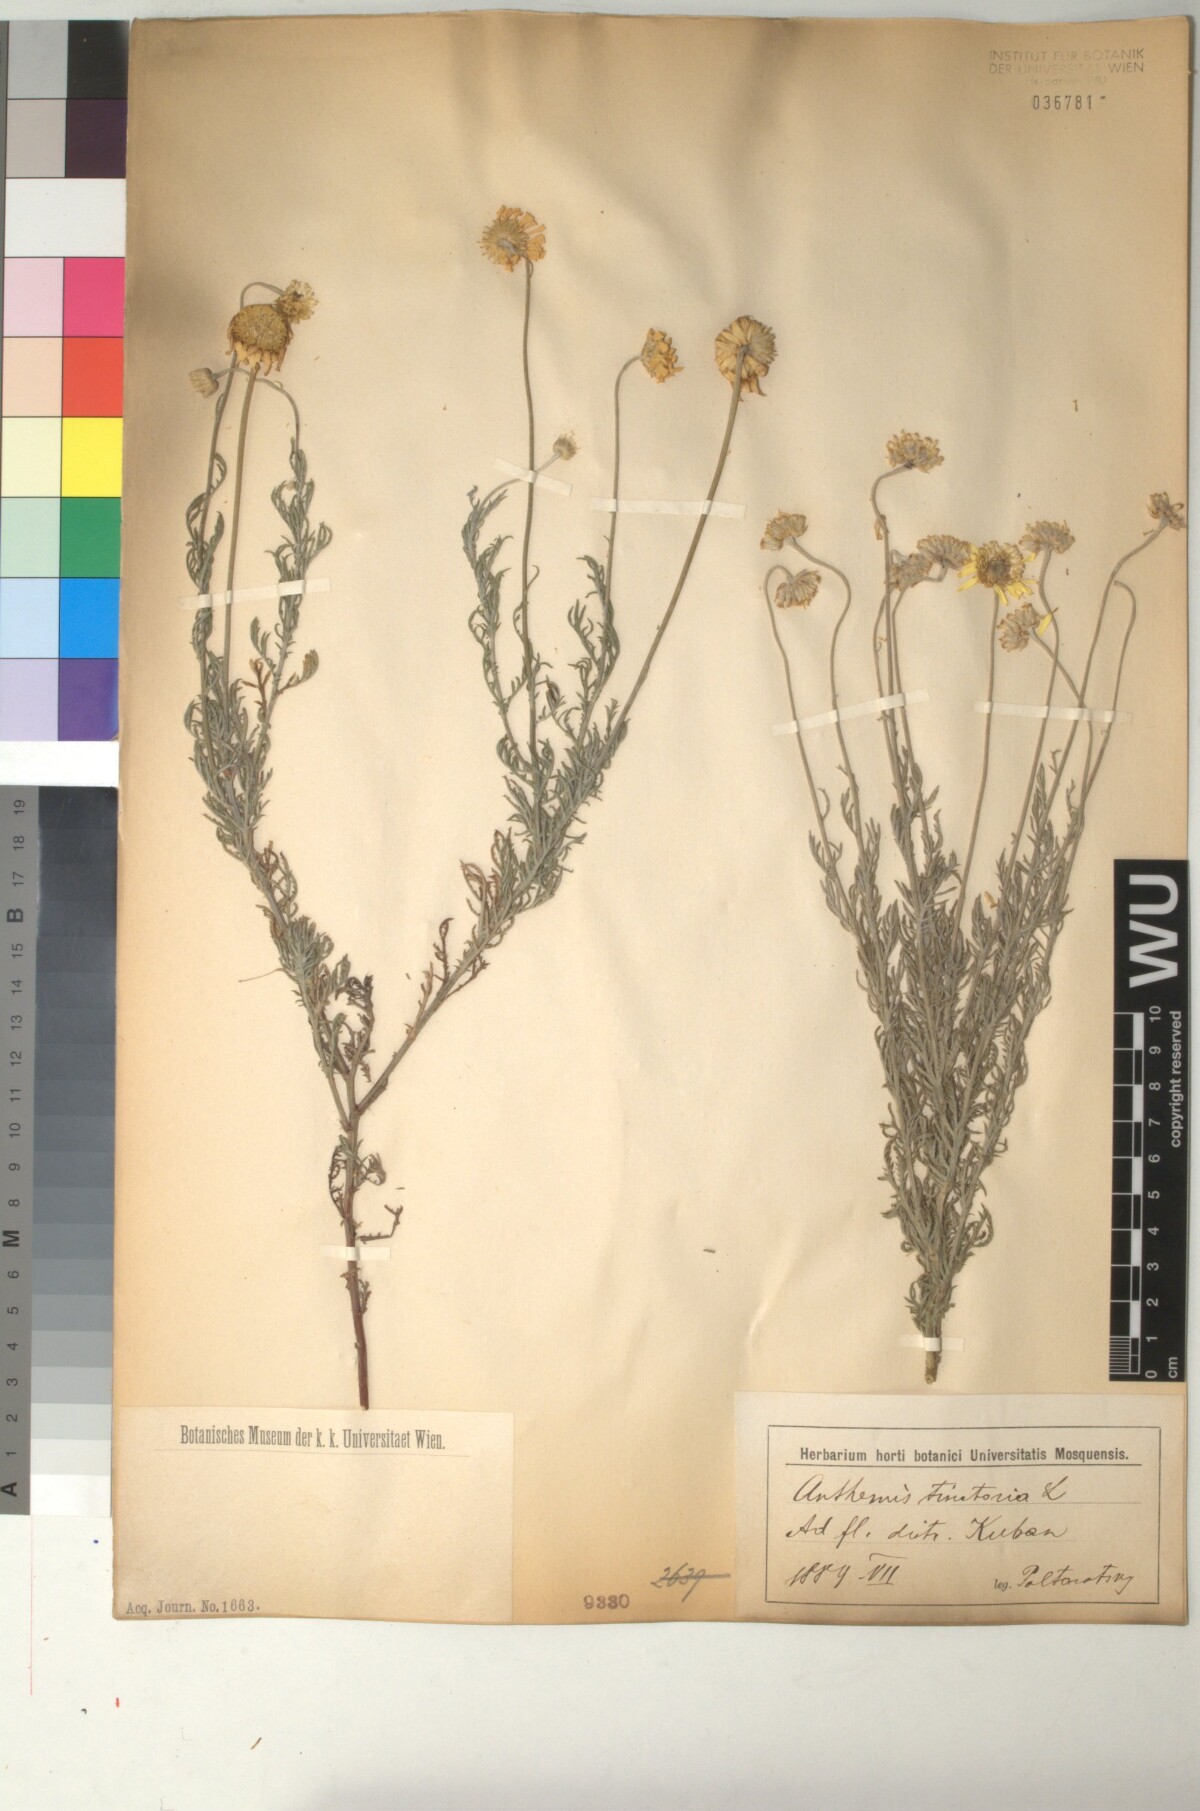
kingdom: Plantae
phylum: Tracheophyta
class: Magnoliopsida
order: Asterales
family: Asteraceae
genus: Cota
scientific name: Cota tinctoria
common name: Golden chamomile
